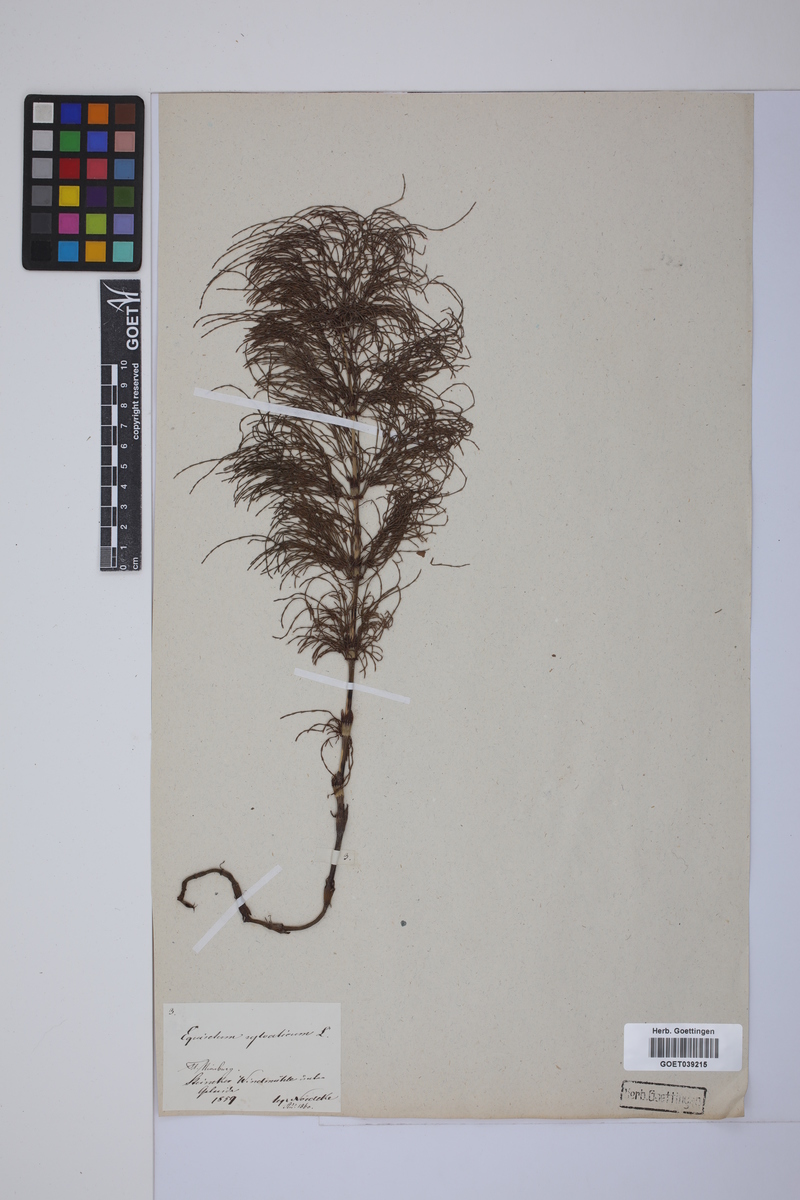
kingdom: Plantae
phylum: Tracheophyta
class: Polypodiopsida
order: Equisetales
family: Equisetaceae
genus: Equisetum
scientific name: Equisetum sylvaticum
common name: Wood horsetail
